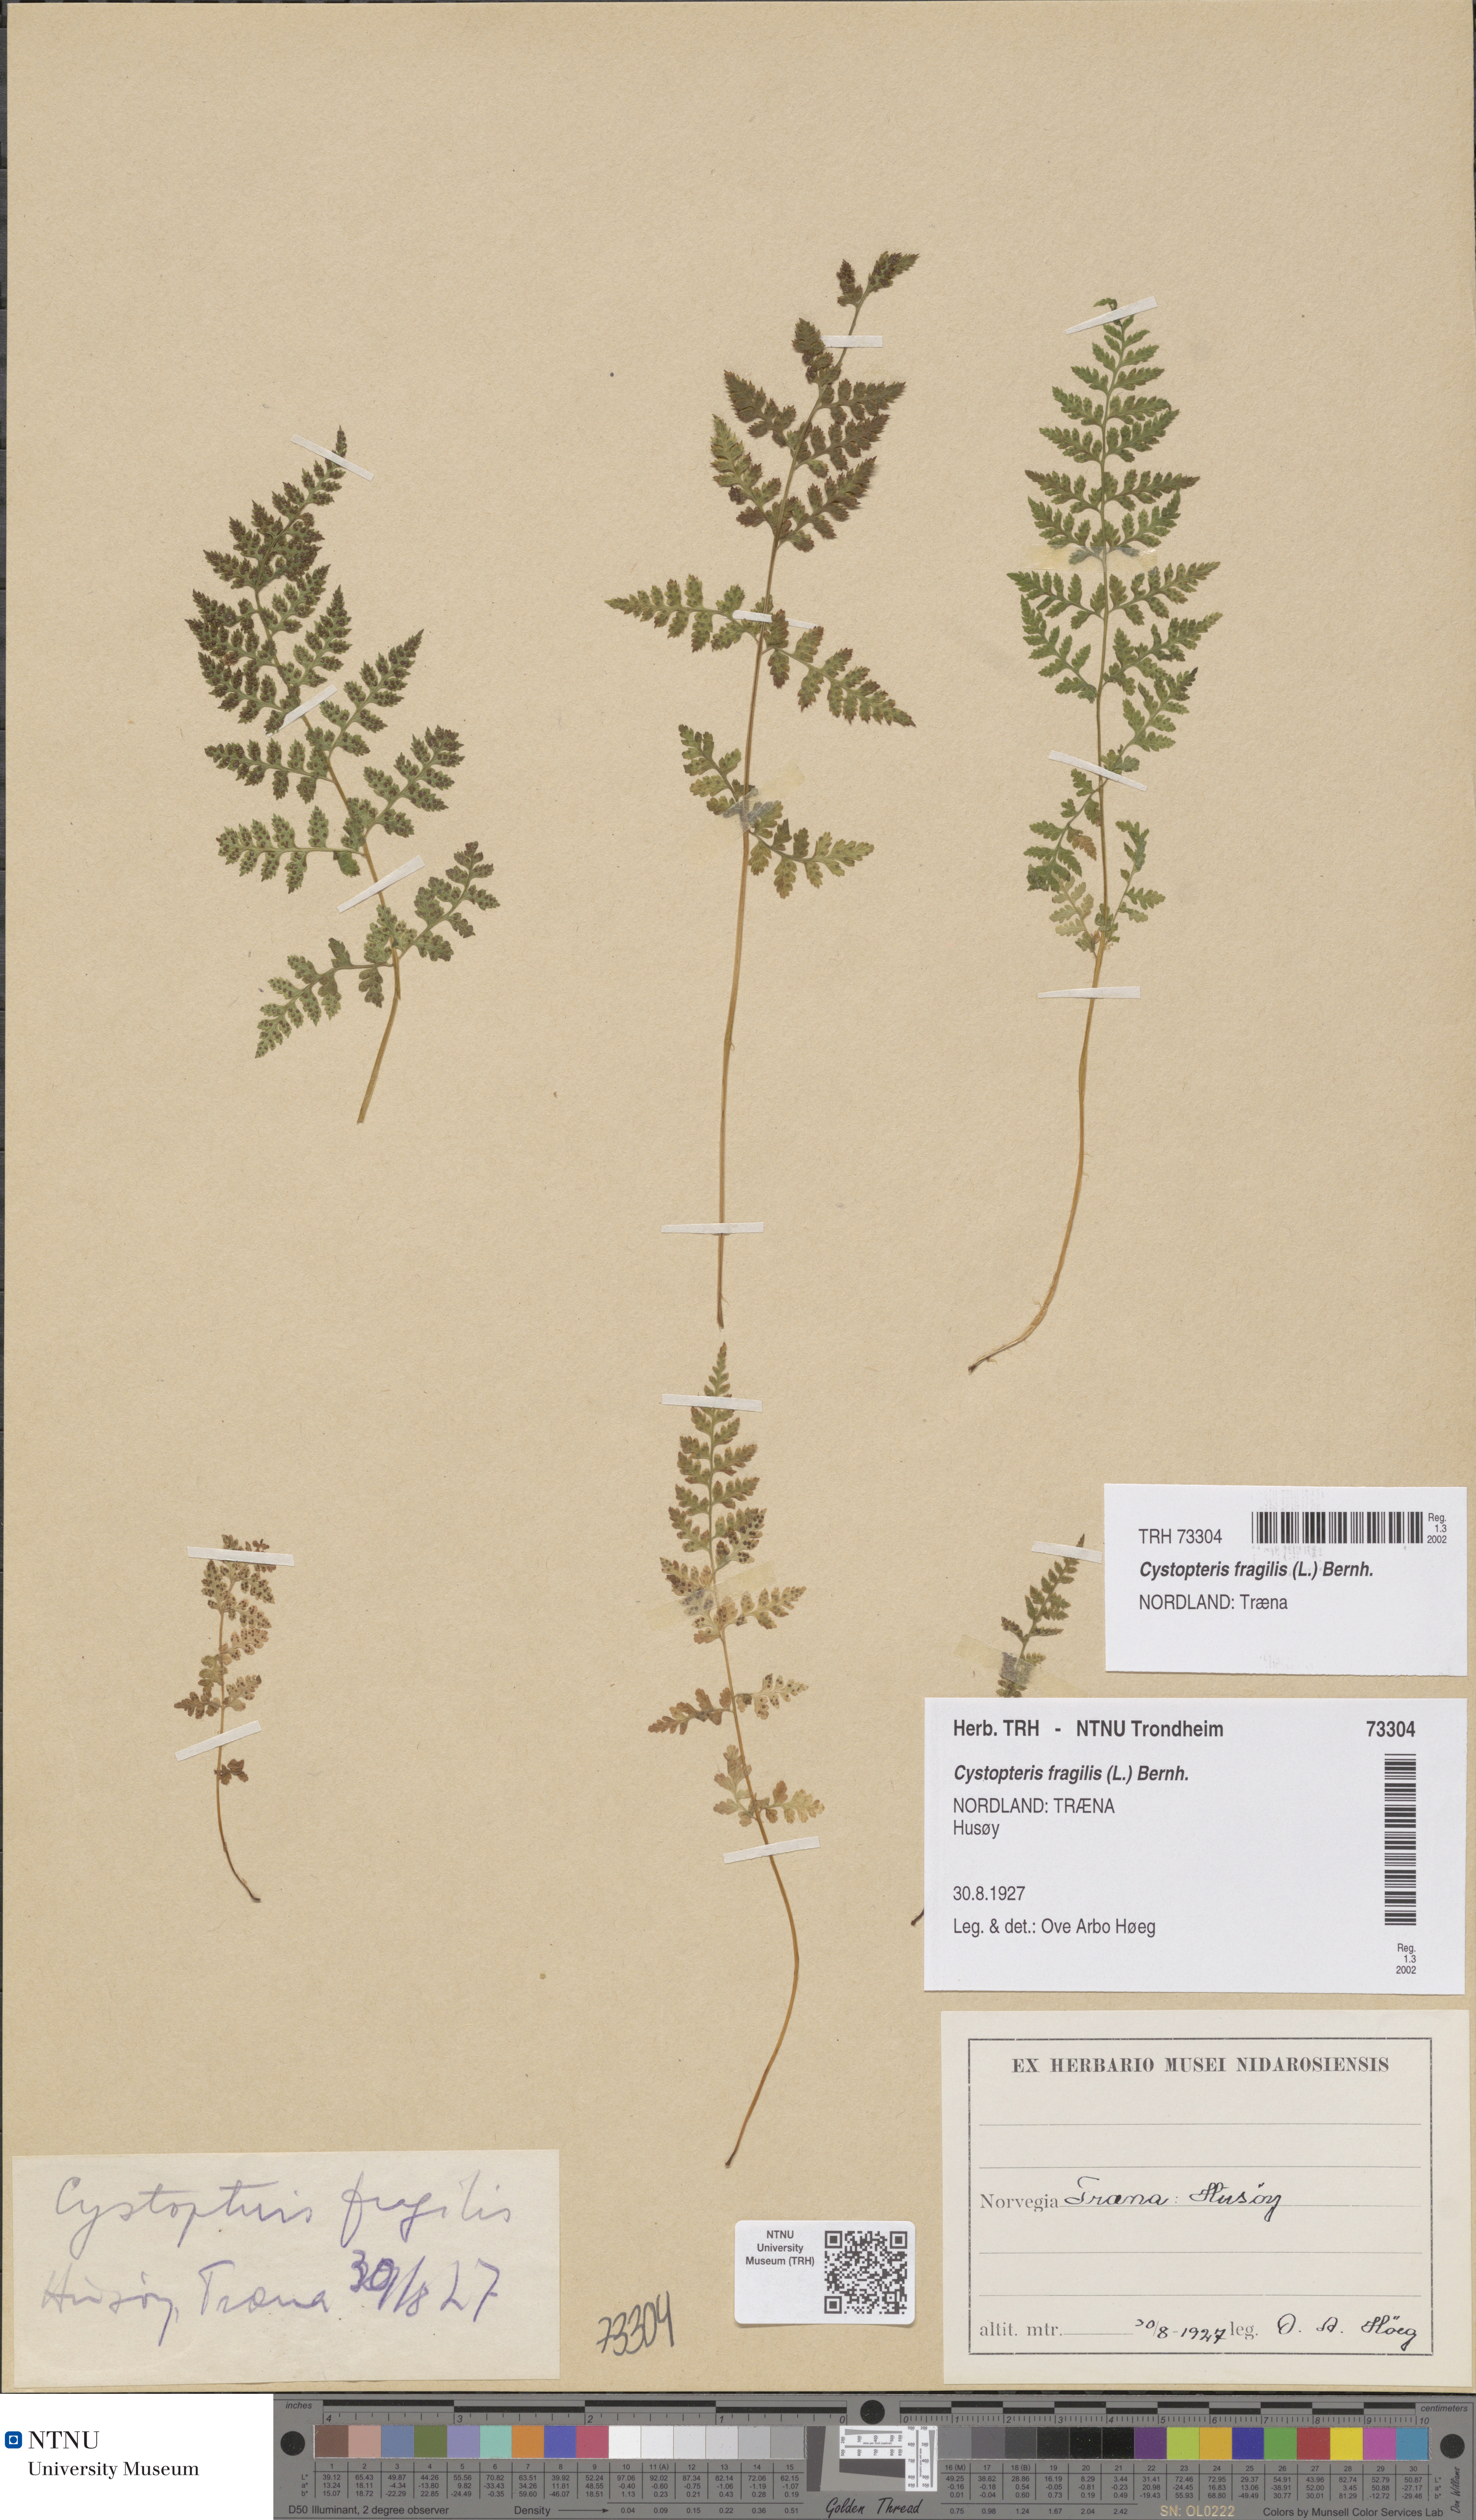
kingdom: Plantae
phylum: Tracheophyta
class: Polypodiopsida
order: Polypodiales
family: Cystopteridaceae
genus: Cystopteris
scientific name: Cystopteris fragilis
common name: Brittle bladder fern
